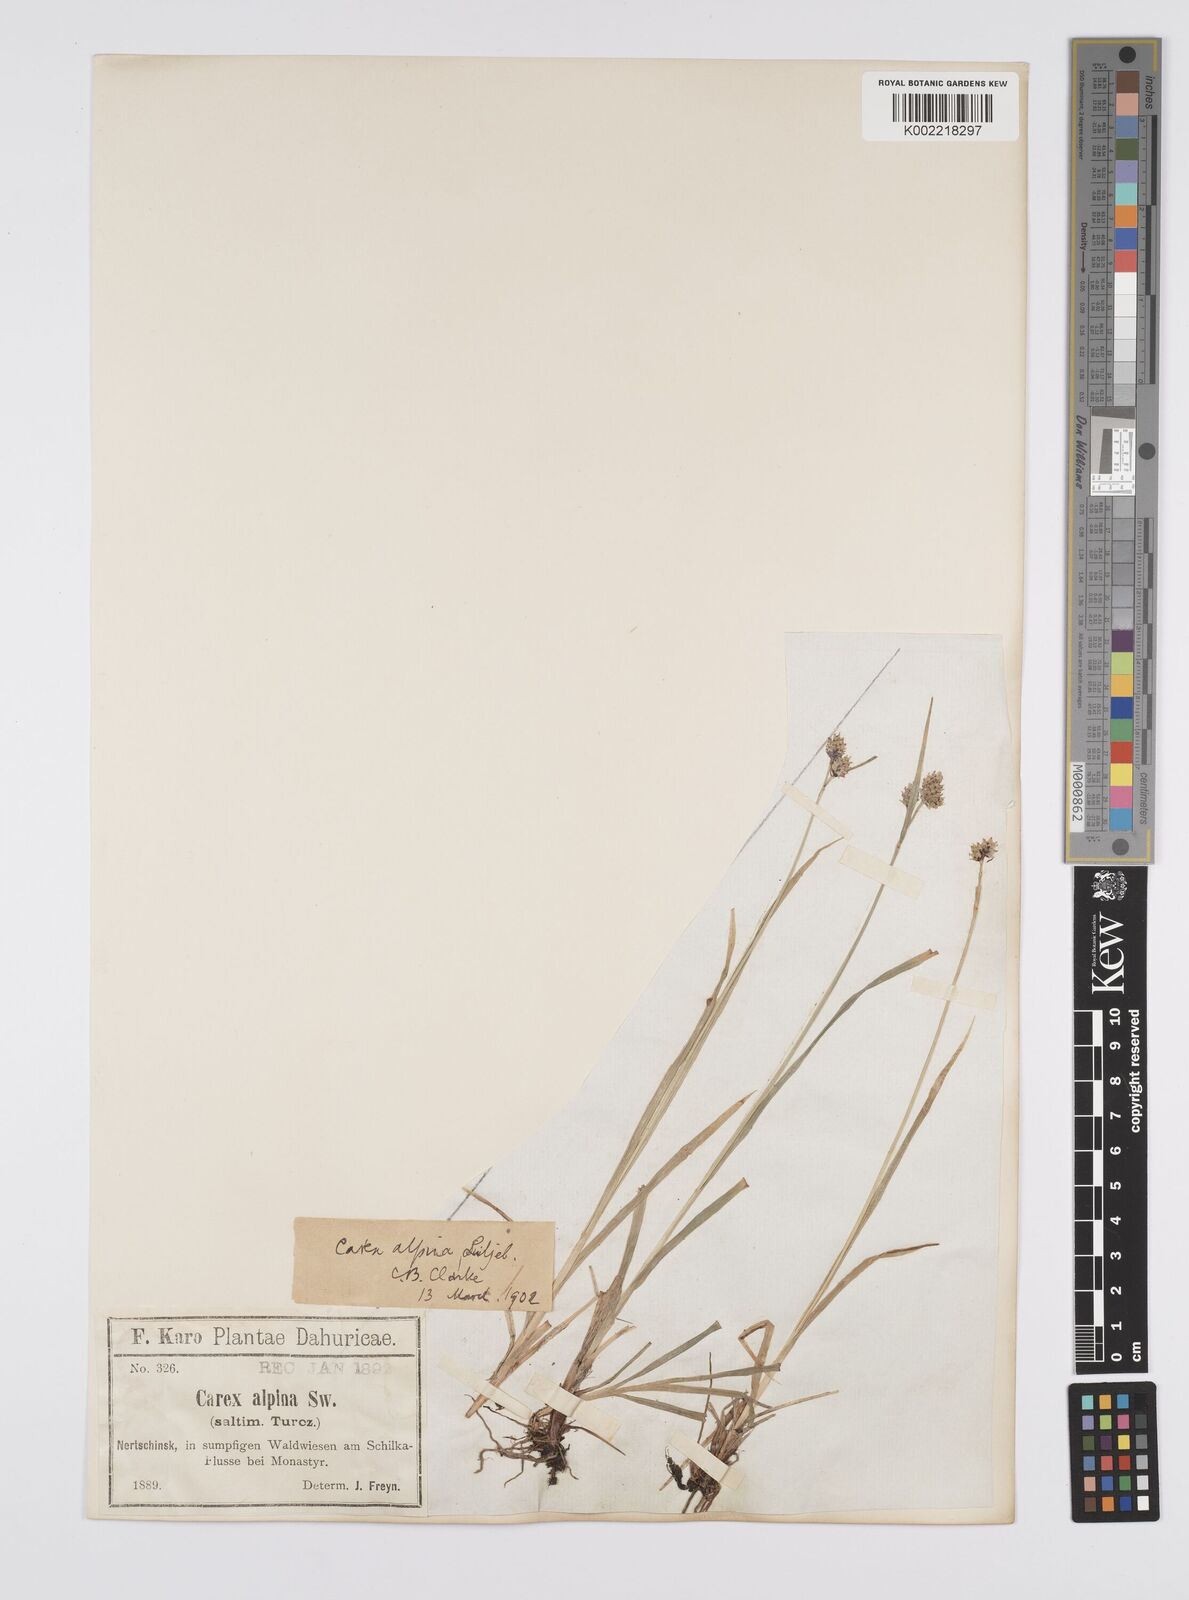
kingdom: Plantae
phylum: Tracheophyta
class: Liliopsida
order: Poales
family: Cyperaceae
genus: Carex
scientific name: Carex nigra
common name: Common sedge
